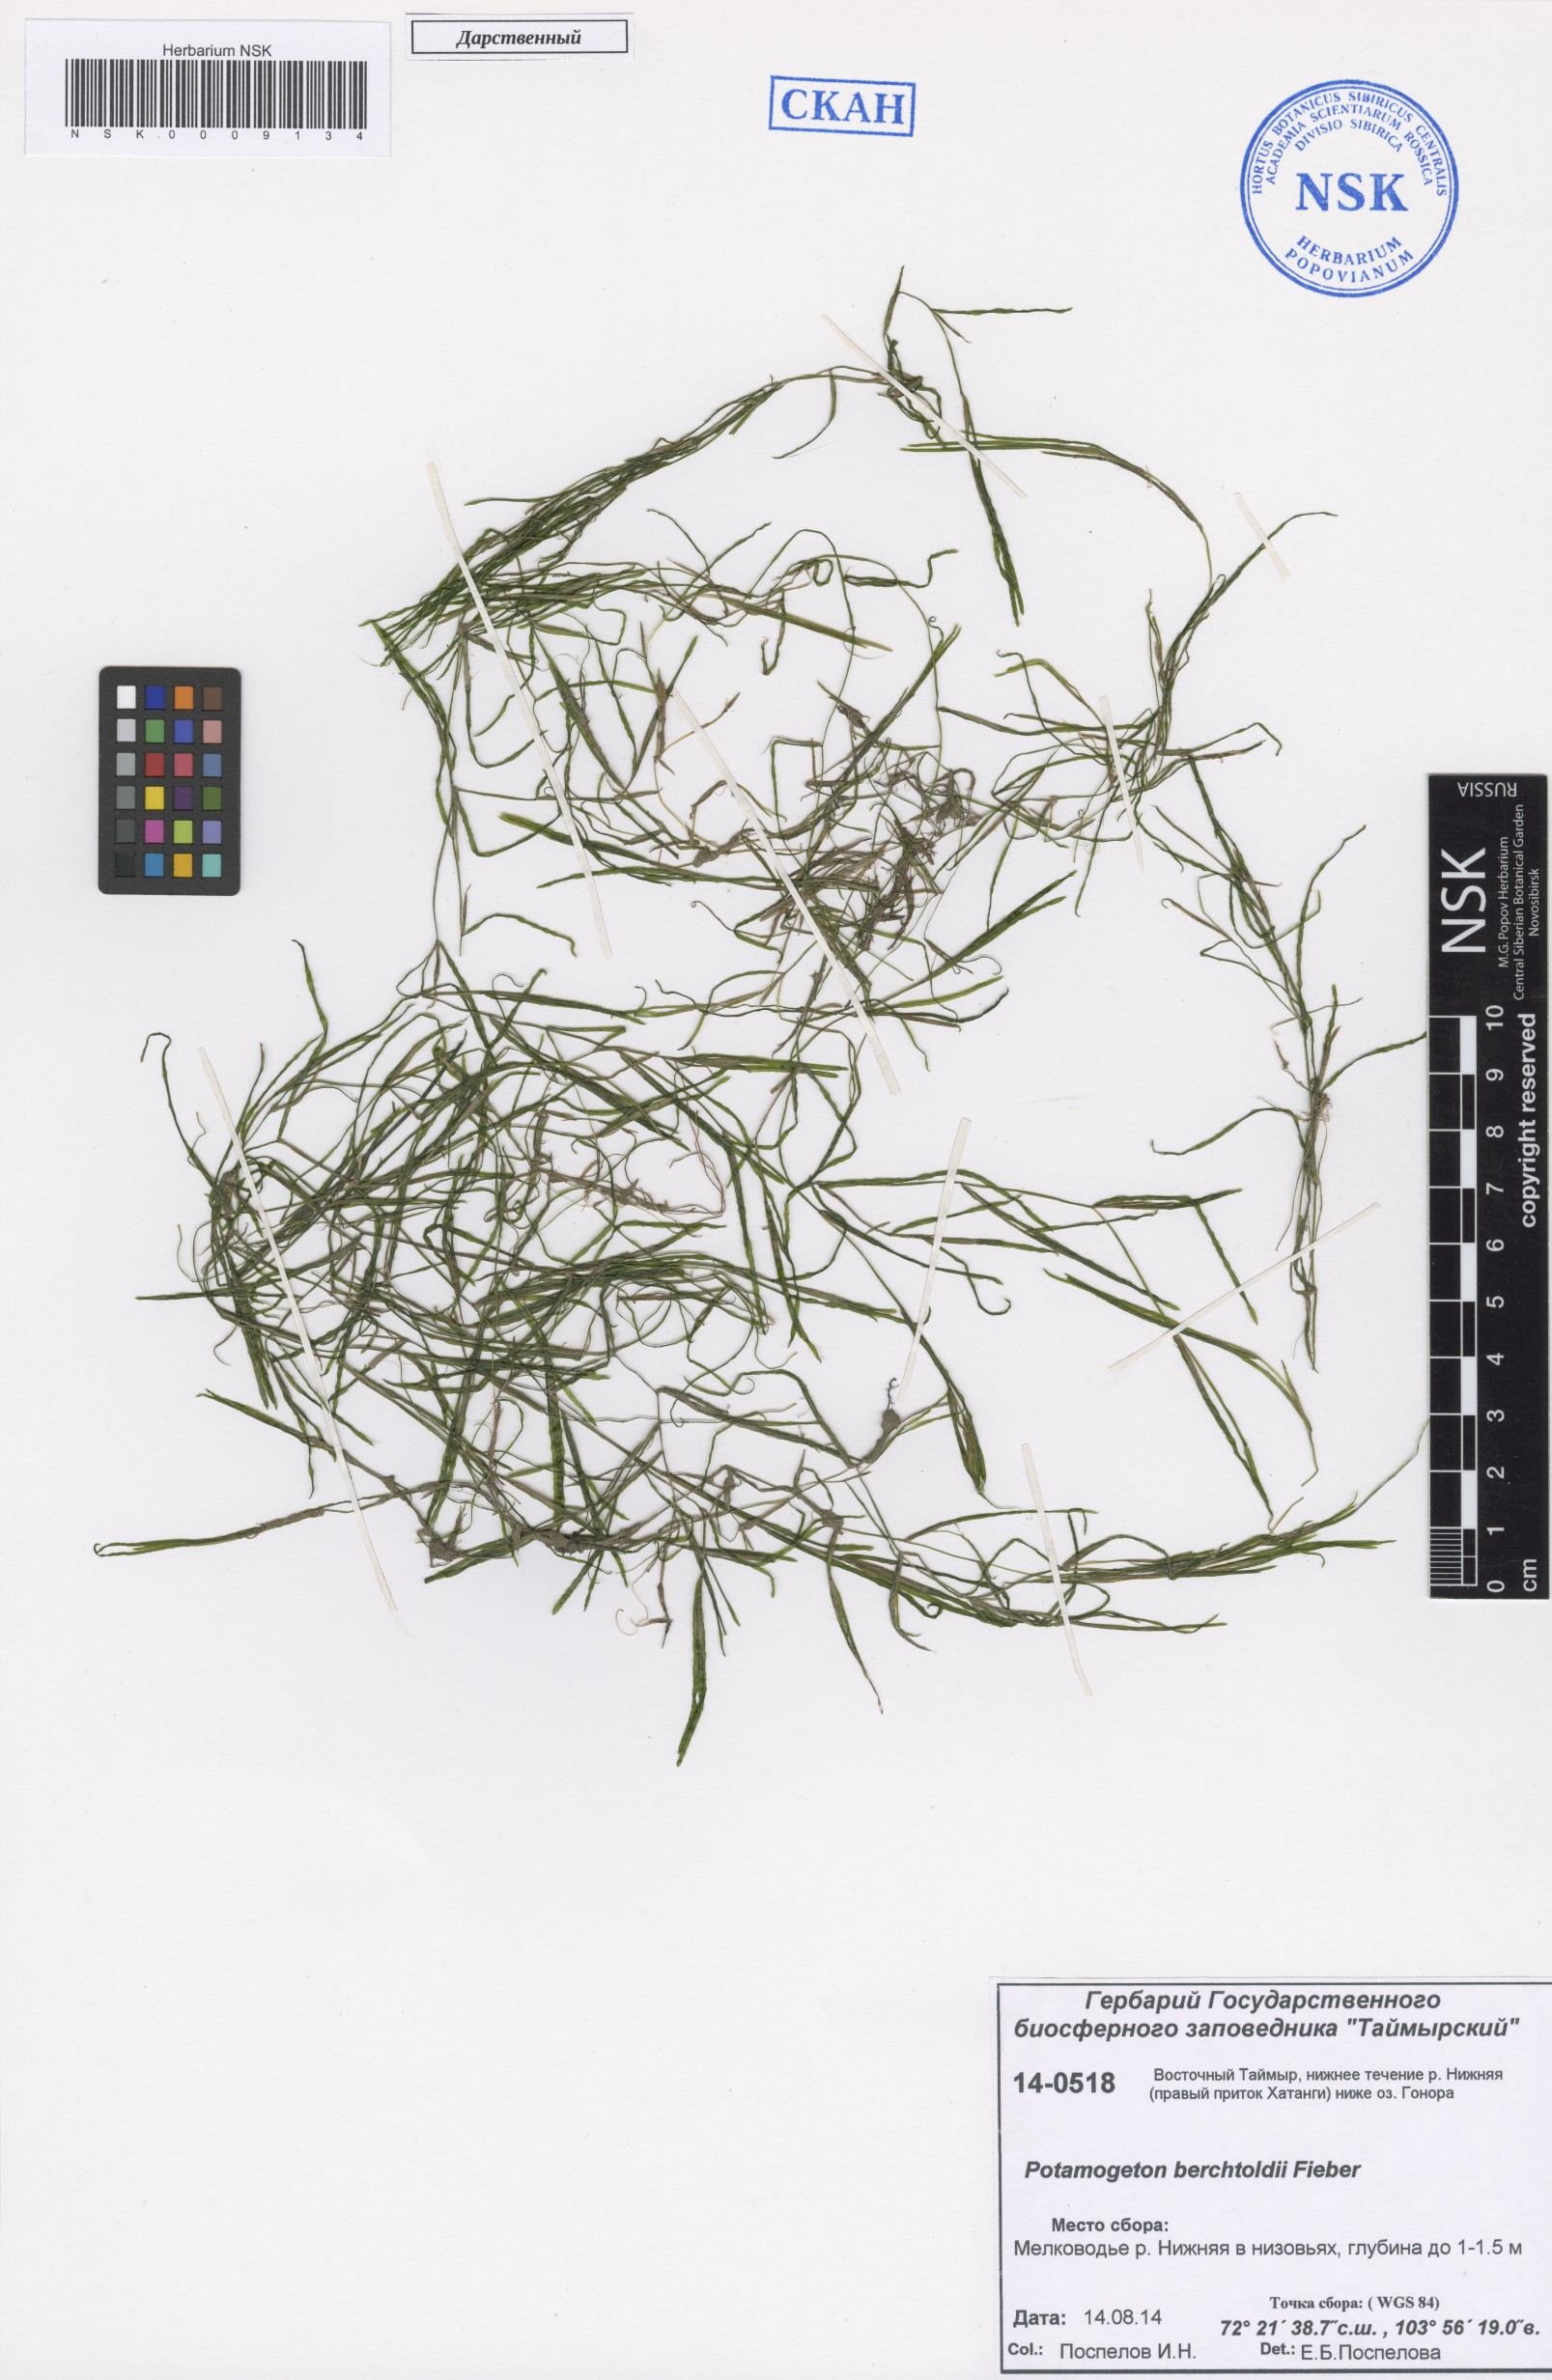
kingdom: Plantae
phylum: Tracheophyta
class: Liliopsida
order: Alismatales
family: Potamogetonaceae
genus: Potamogeton
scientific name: Potamogeton berchtoldii
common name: Small pondweed
